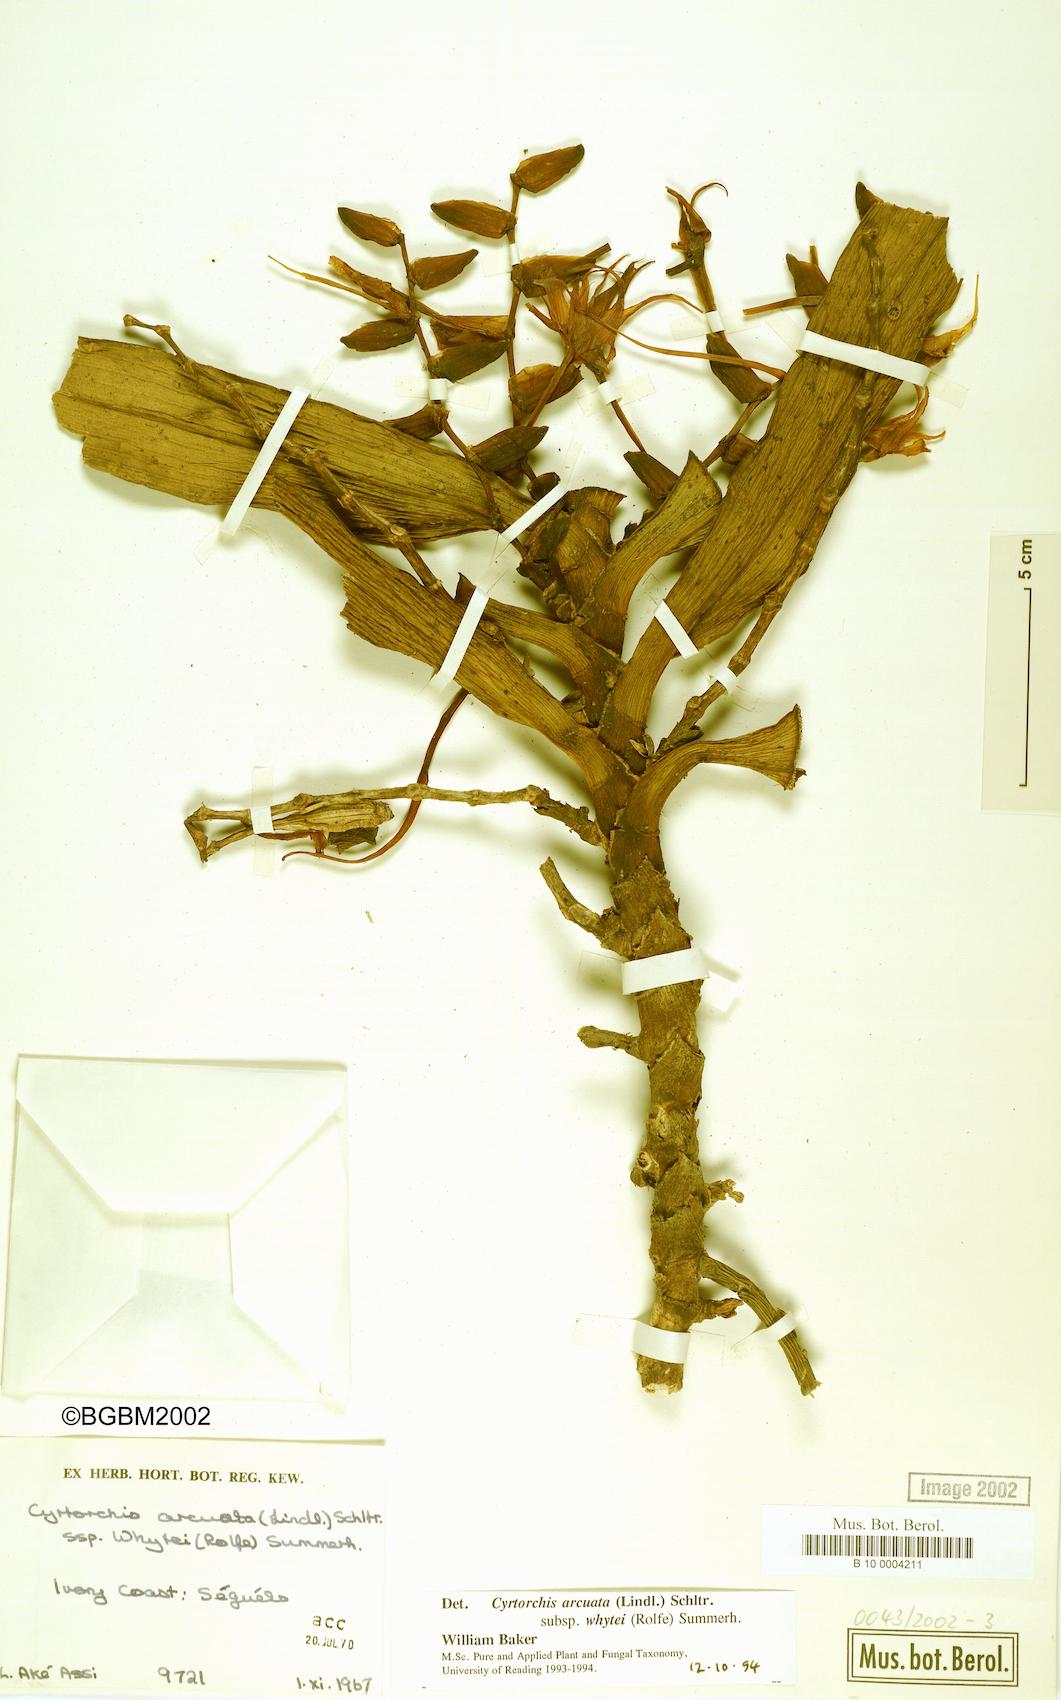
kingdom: Plantae
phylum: Tracheophyta
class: Liliopsida
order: Asparagales
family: Orchidaceae
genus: Cyrtorchis
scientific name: Cyrtorchis arcuata
